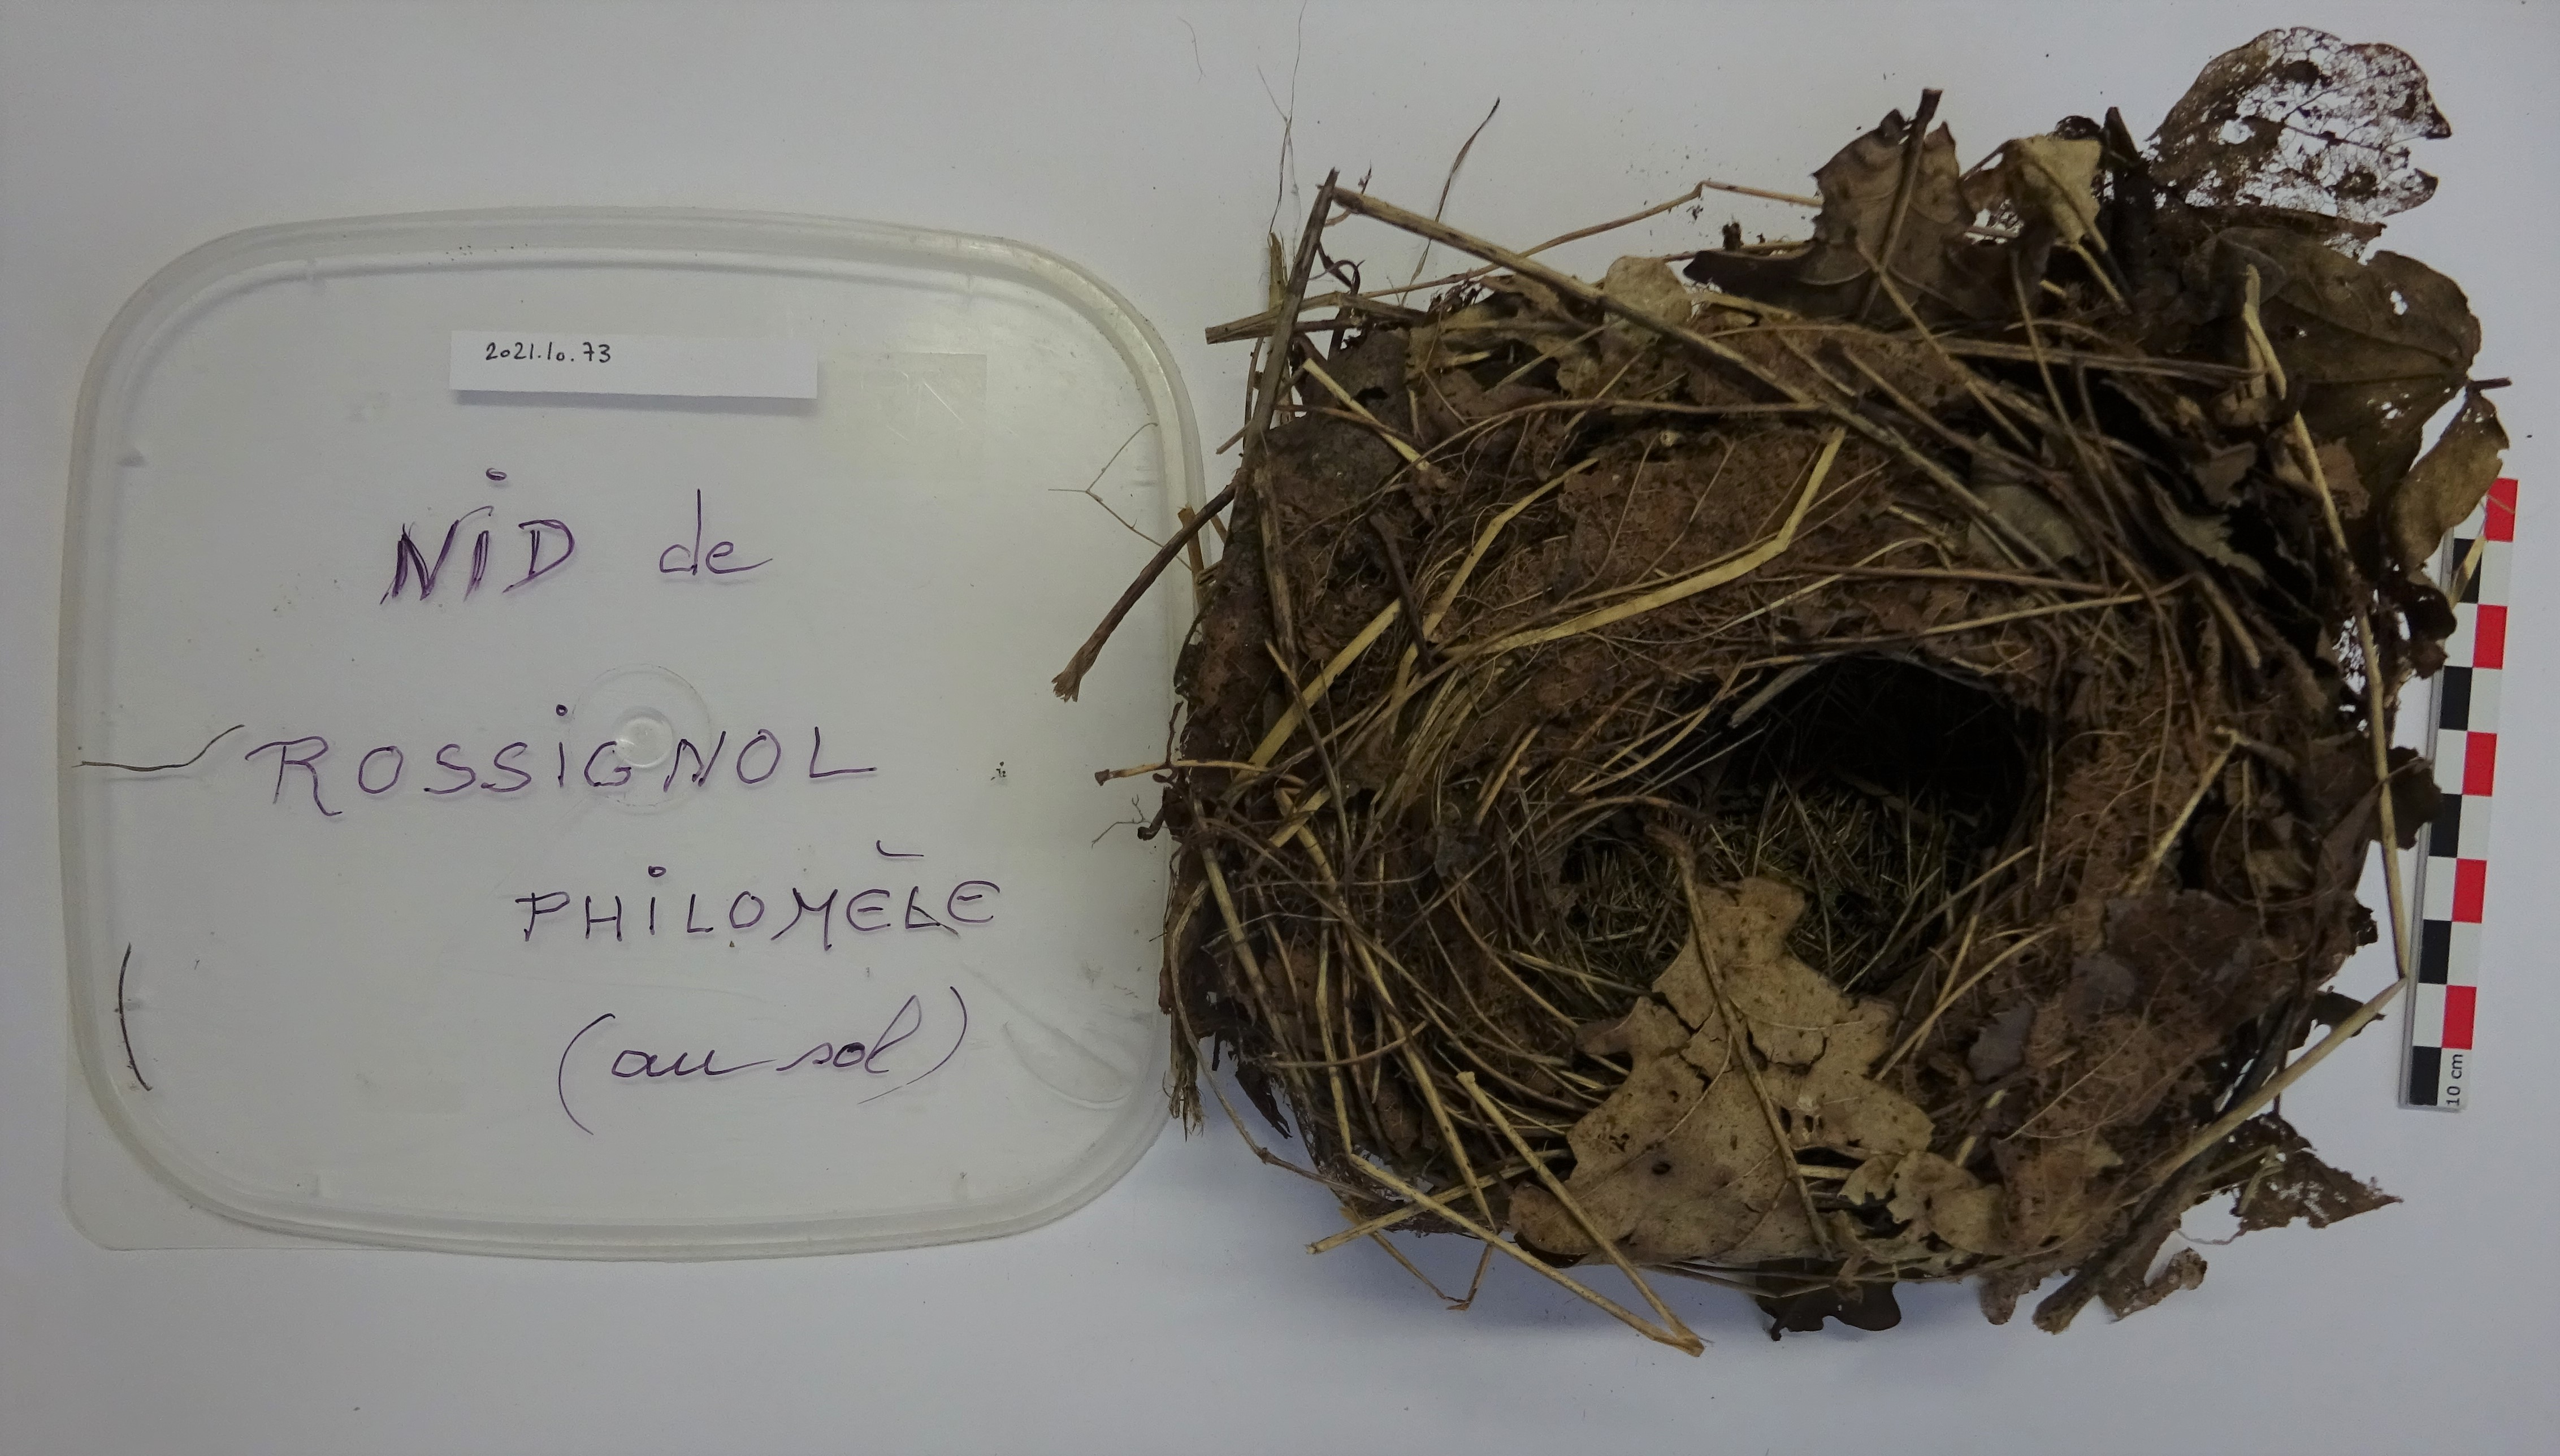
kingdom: Animalia
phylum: Chordata
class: Aves
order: Passeriformes
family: Muscicapidae
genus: Luscinia
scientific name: Luscinia megarhynchos
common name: Common nightingale
